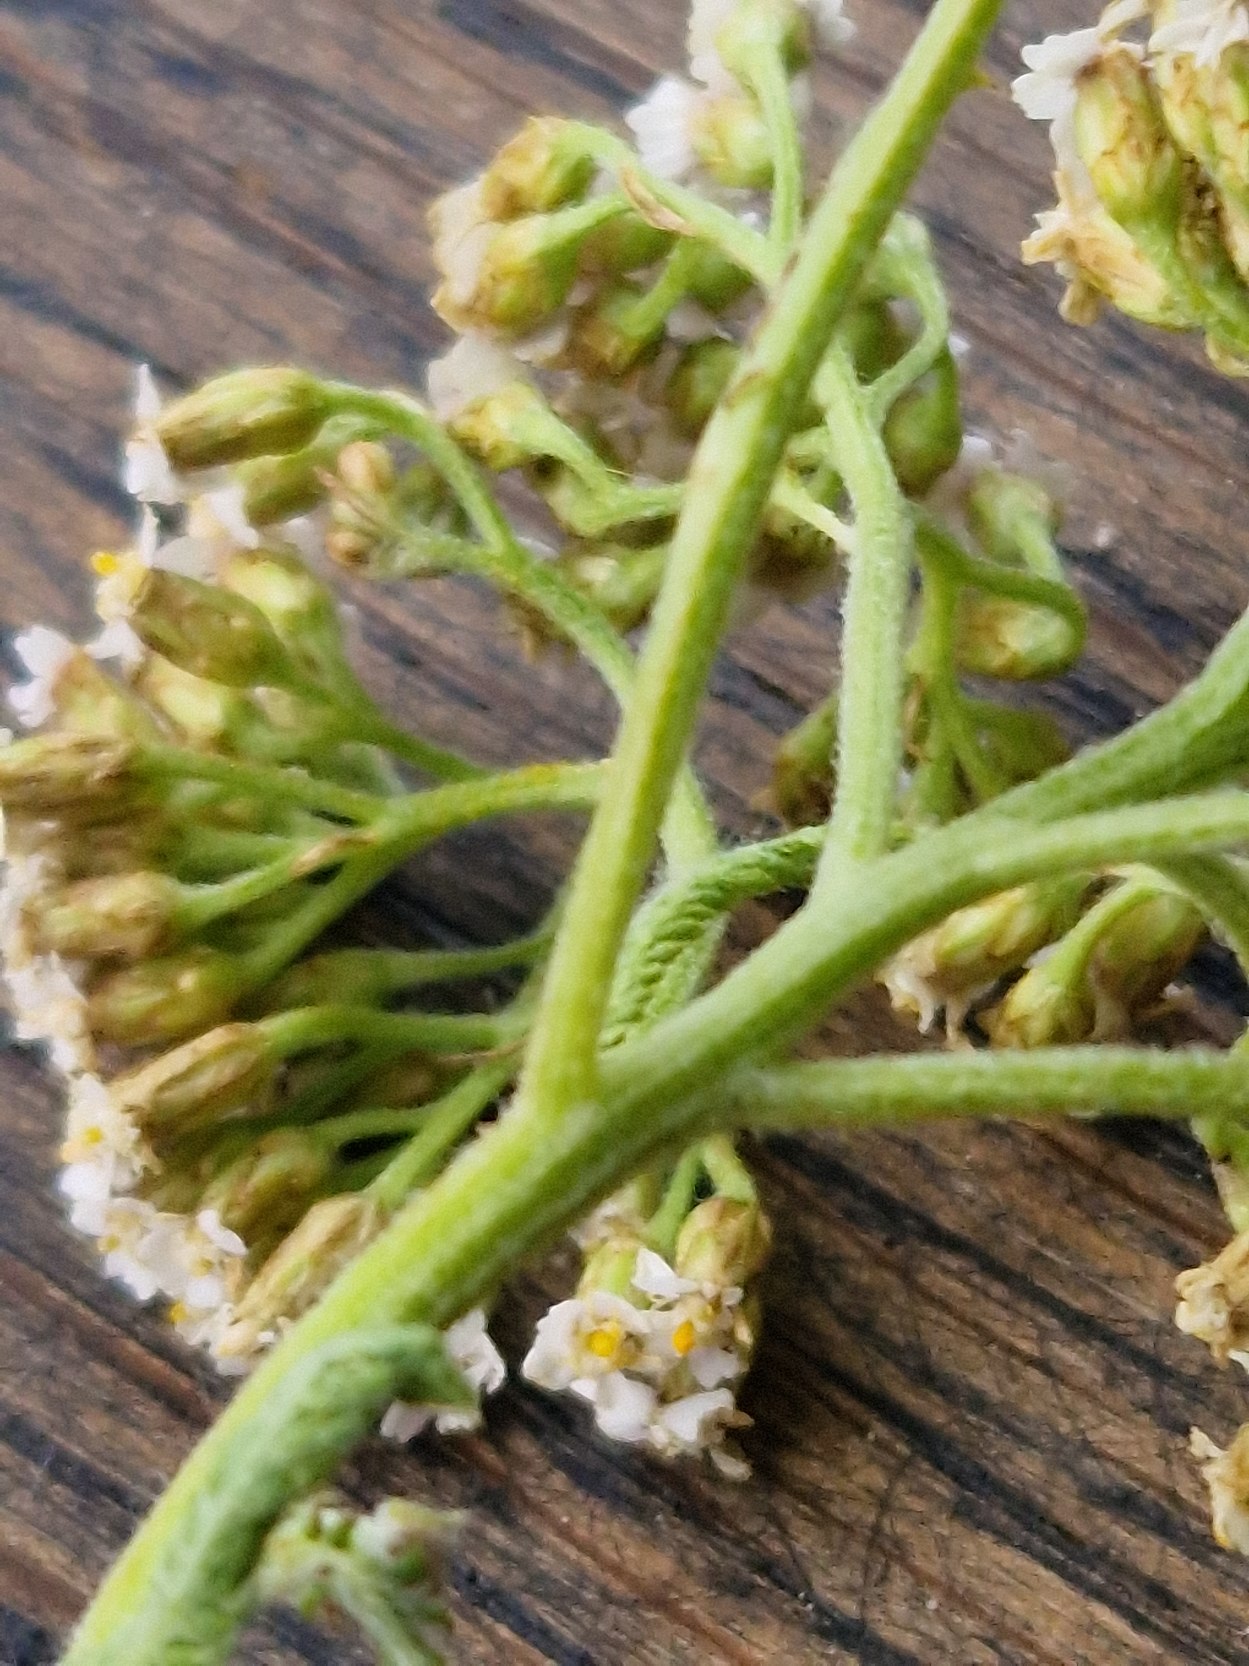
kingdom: Plantae
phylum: Tracheophyta
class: Magnoliopsida
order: Asterales
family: Asteraceae
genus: Achillea
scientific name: Achillea millefolium
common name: Almindelig røllike
